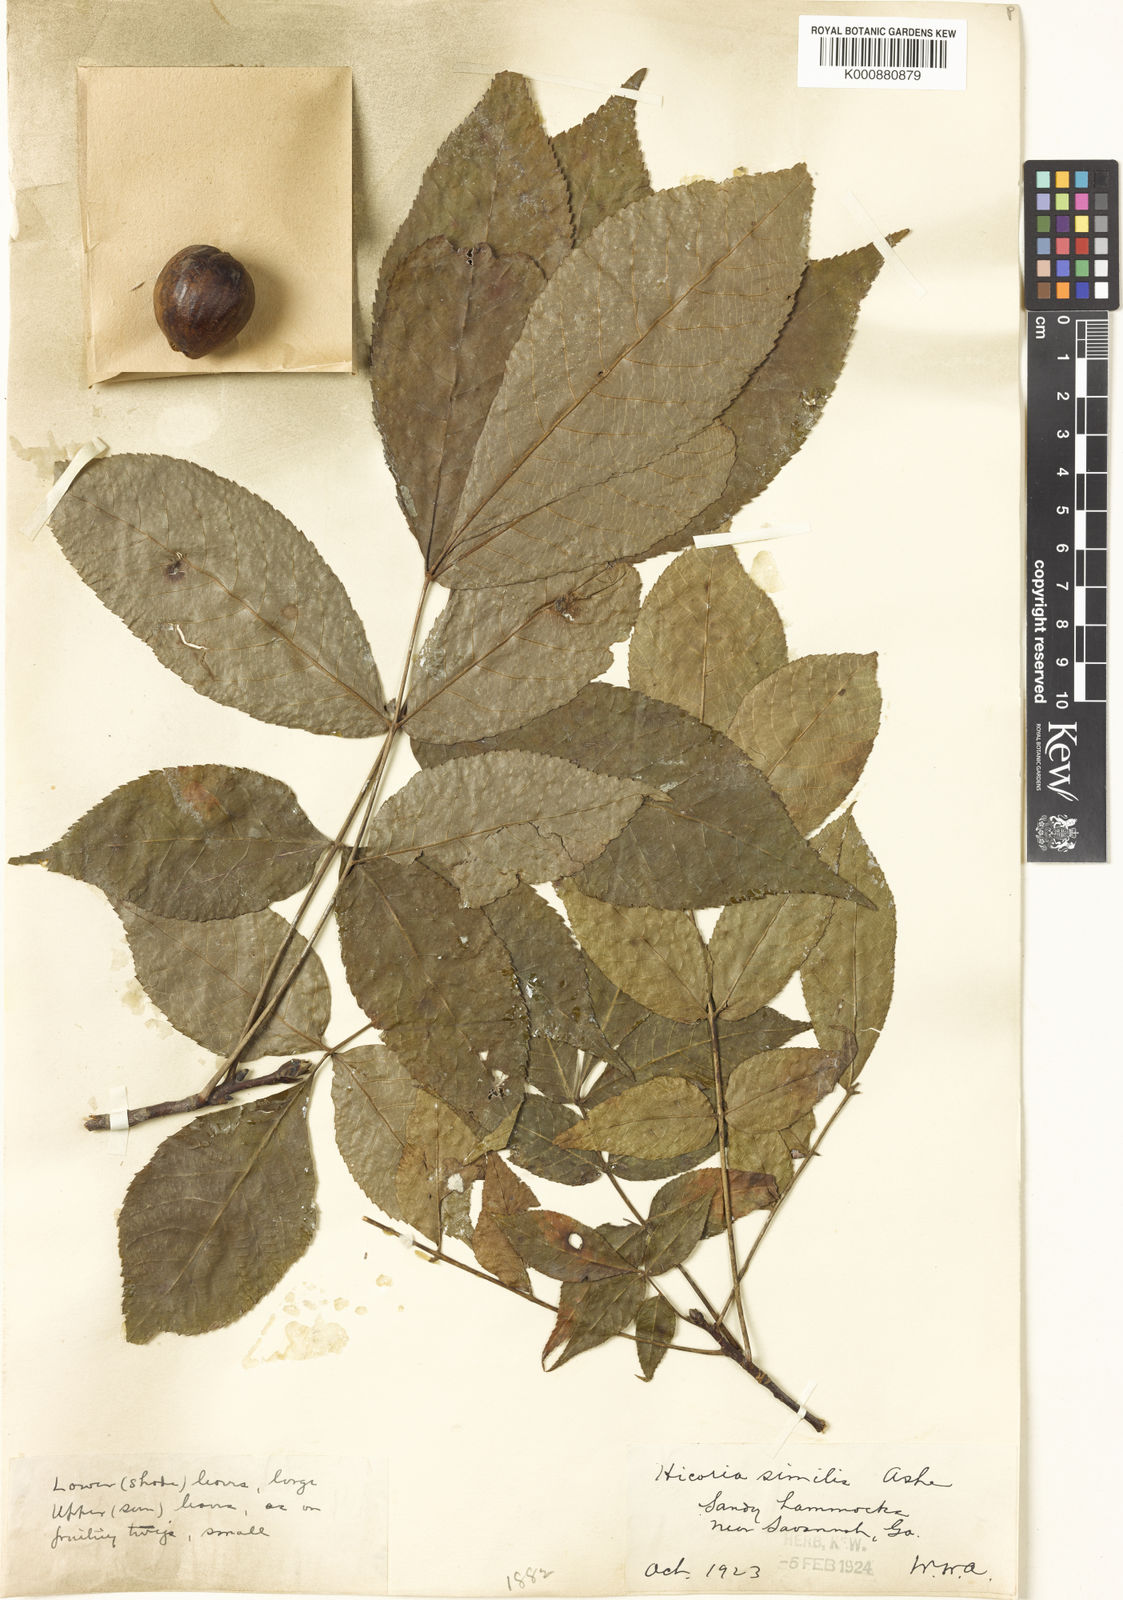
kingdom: Plantae
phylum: Tracheophyta
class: Magnoliopsida
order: Fagales
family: Juglandaceae
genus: Carya
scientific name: Carya
